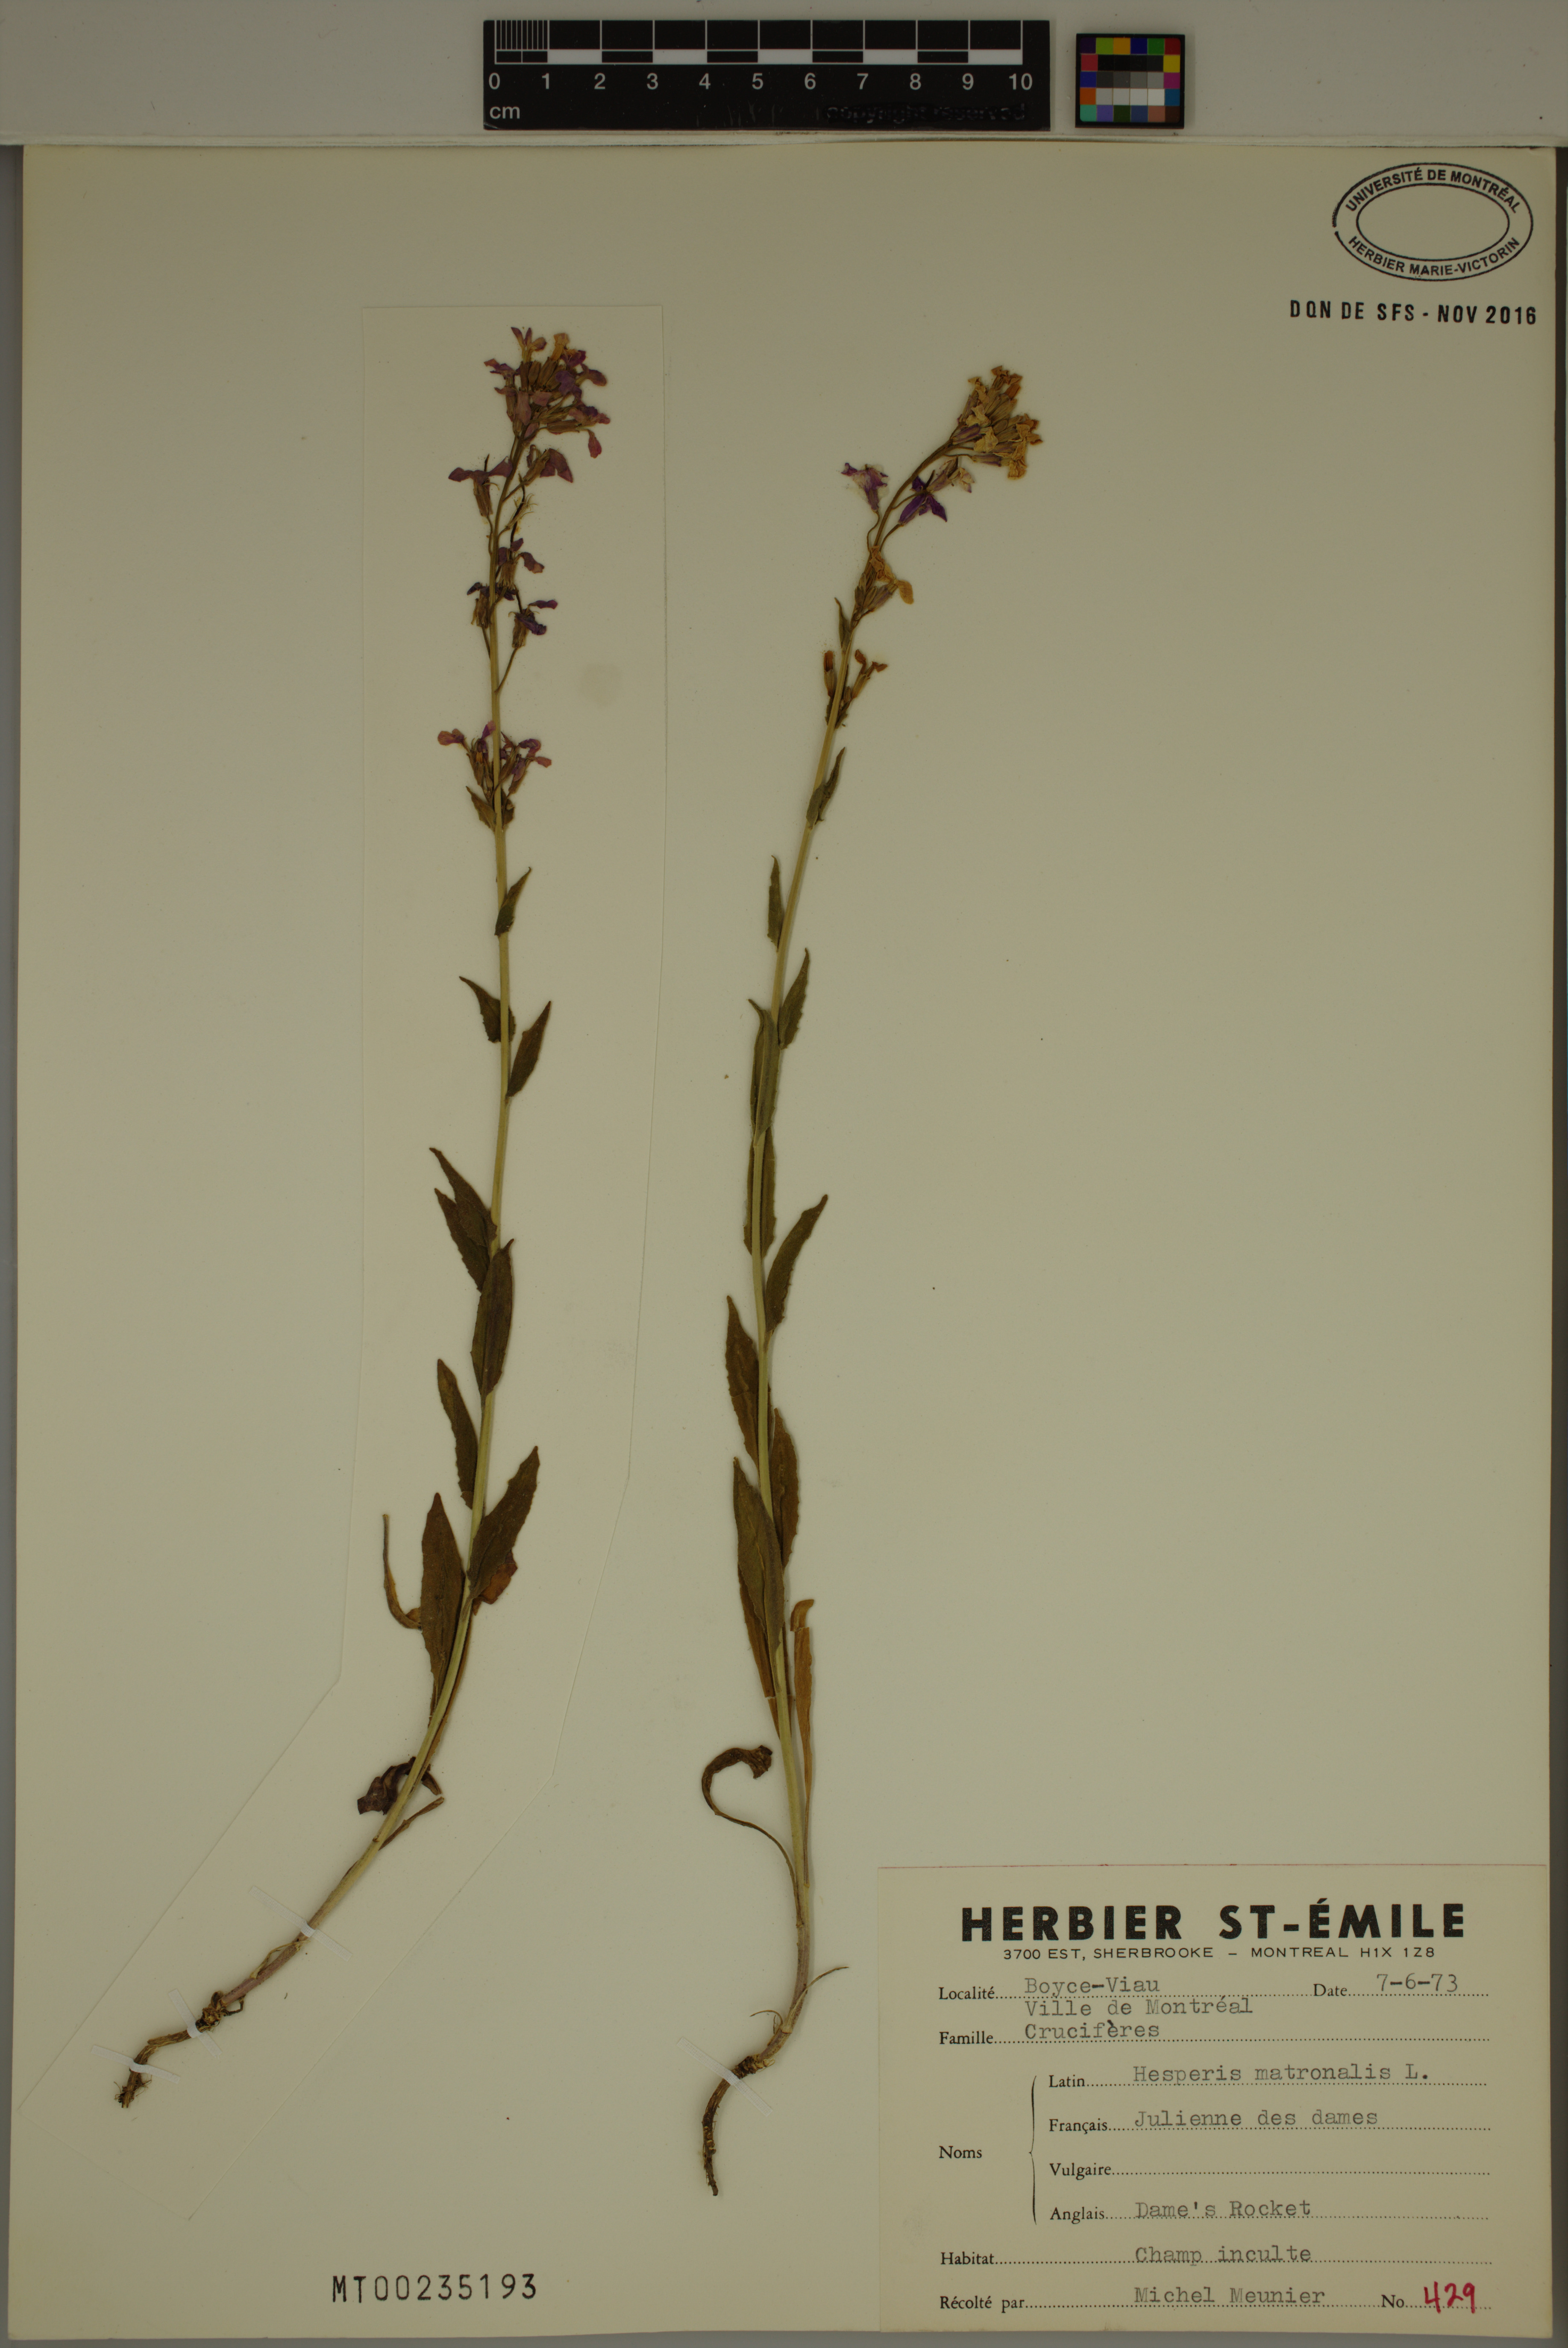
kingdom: Plantae
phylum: Tracheophyta
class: Magnoliopsida
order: Brassicales
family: Brassicaceae
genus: Hesperis
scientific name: Hesperis matronalis
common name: Dame's-violet
